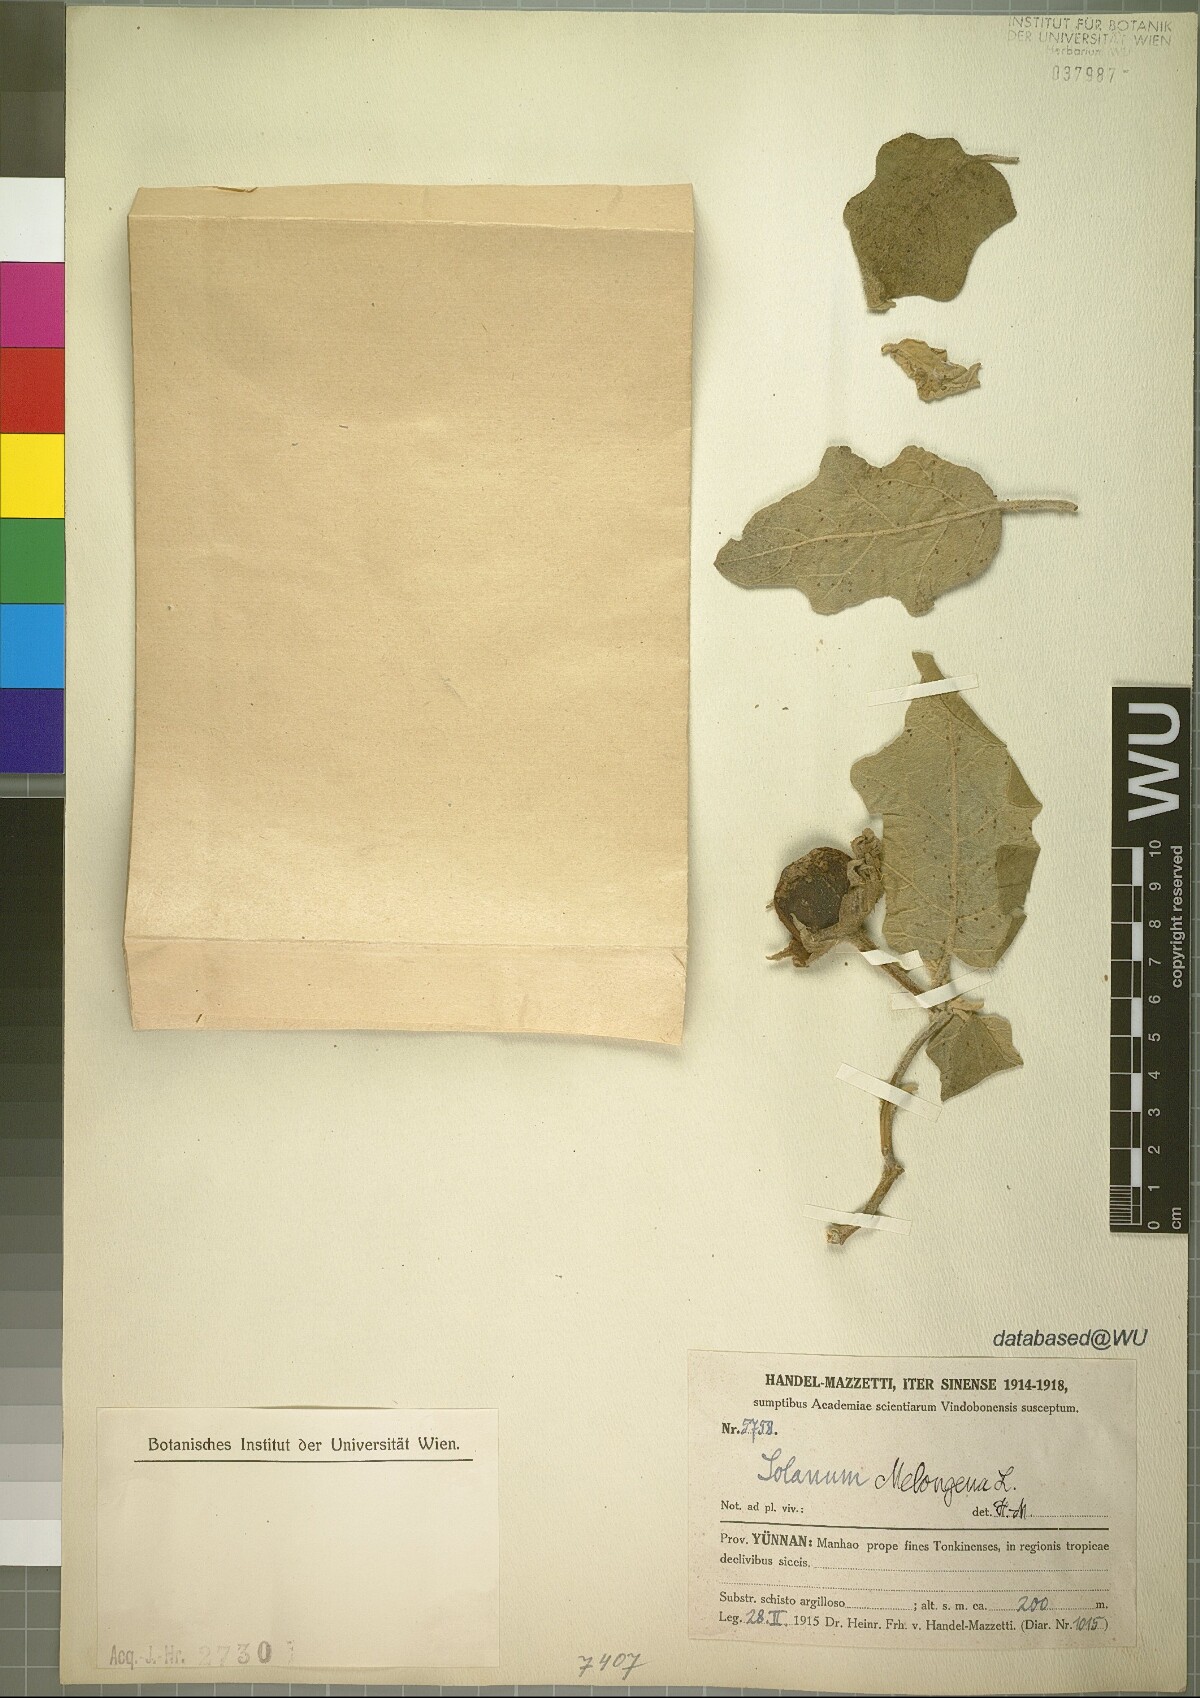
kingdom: Plantae
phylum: Tracheophyta
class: Magnoliopsida
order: Solanales
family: Solanaceae
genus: Solanum
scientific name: Solanum melongena
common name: Eggplant
